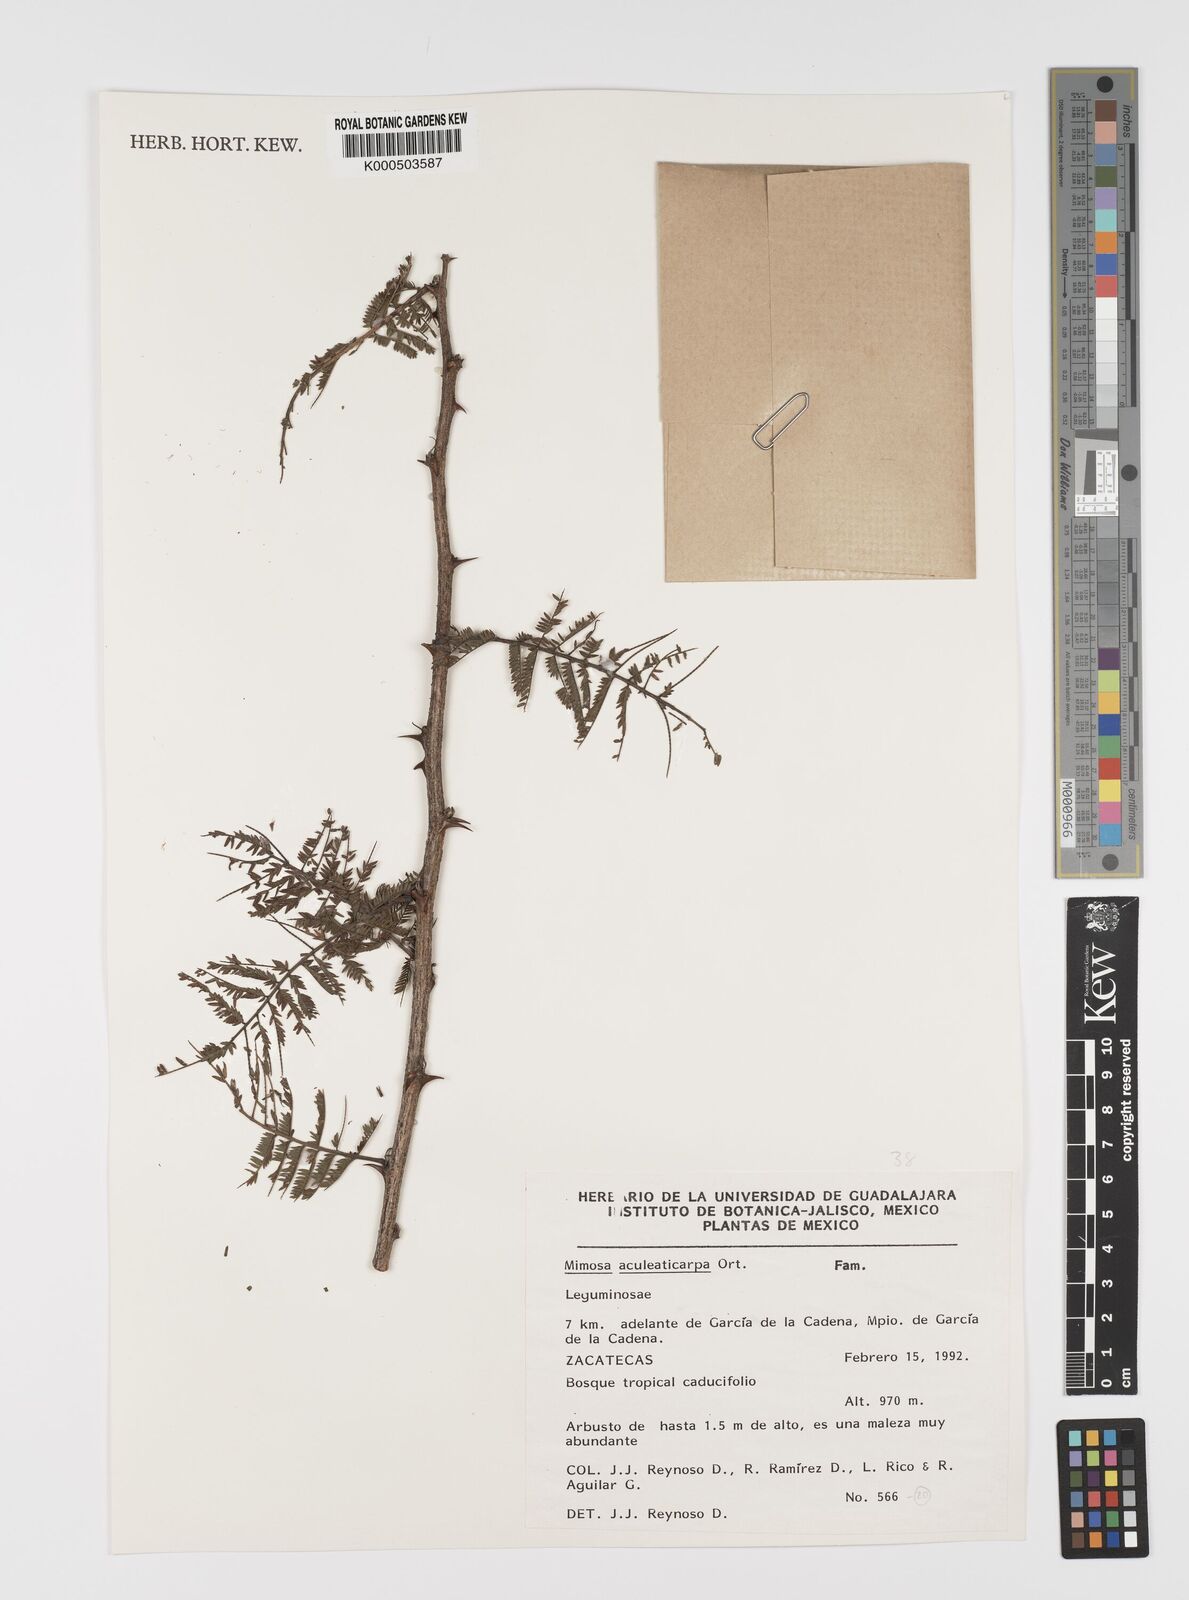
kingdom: Plantae
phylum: Tracheophyta
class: Magnoliopsida
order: Fabales
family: Fabaceae
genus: Mimosa
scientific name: Mimosa aculeaticarpa
